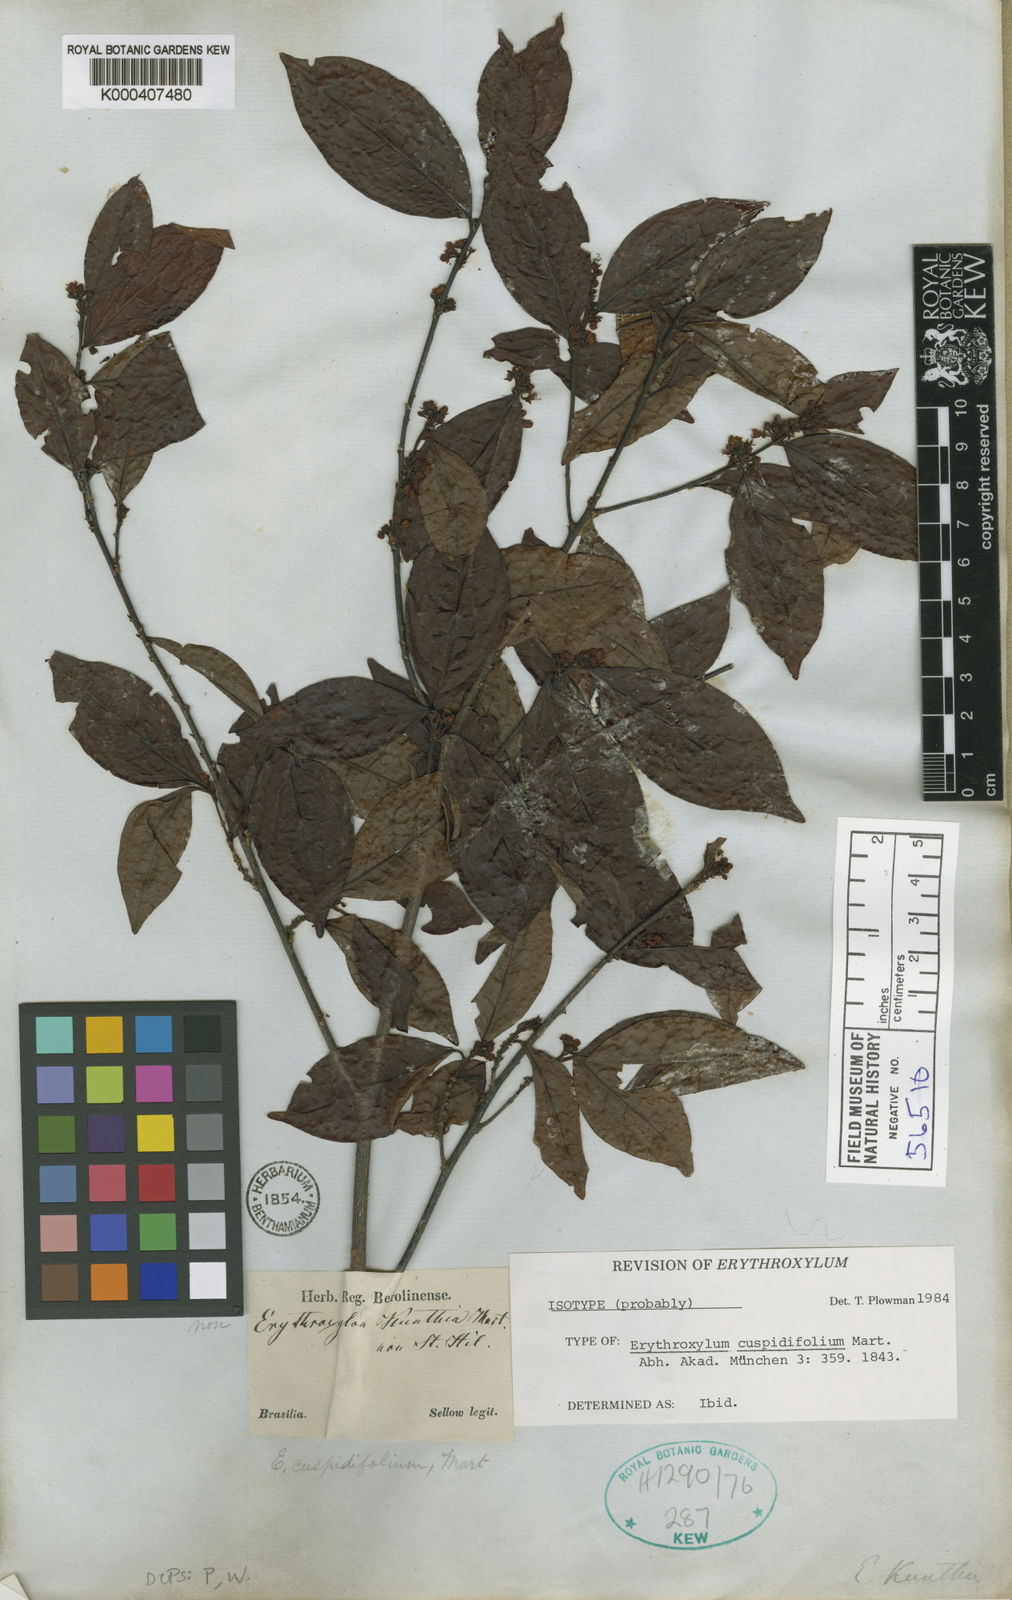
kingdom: Plantae
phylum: Tracheophyta
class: Magnoliopsida
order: Malpighiales
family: Erythroxylaceae
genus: Erythroxylum
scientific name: Erythroxylum cuspidifolium
